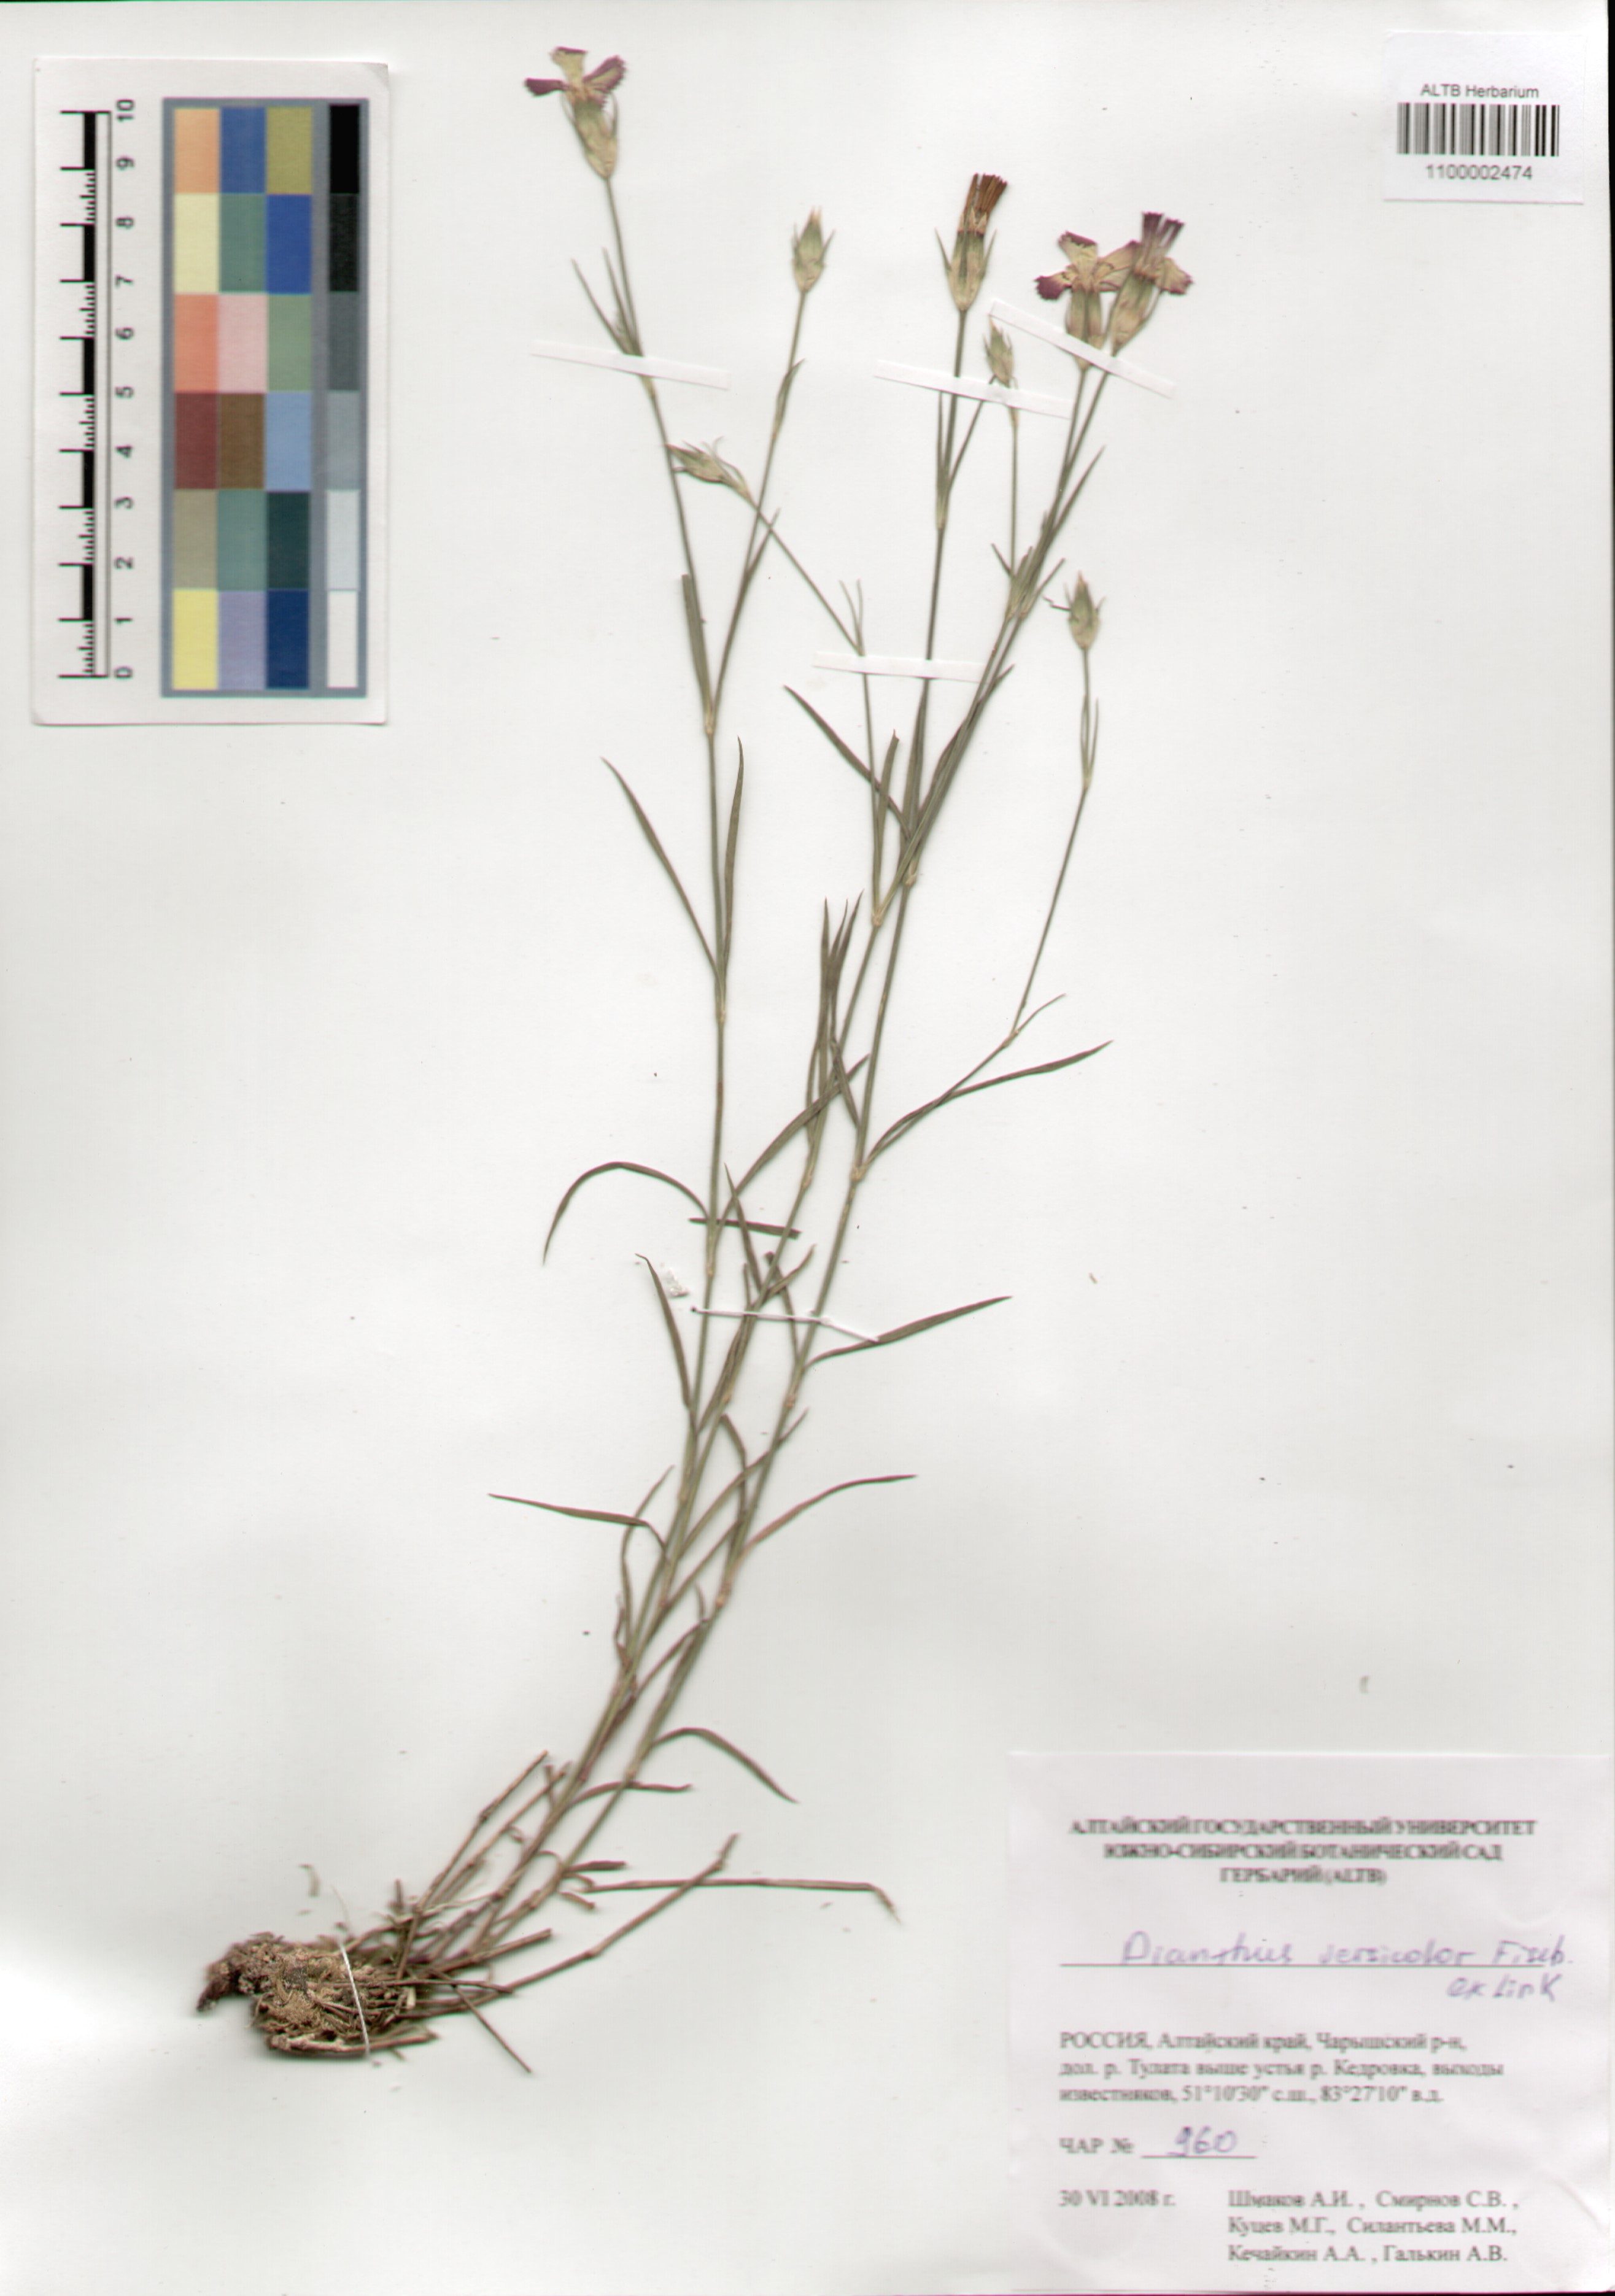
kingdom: Plantae
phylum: Tracheophyta
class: Magnoliopsida
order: Caryophyllales
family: Caryophyllaceae
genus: Dianthus
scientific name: Dianthus chinensis
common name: Rainbow pink
